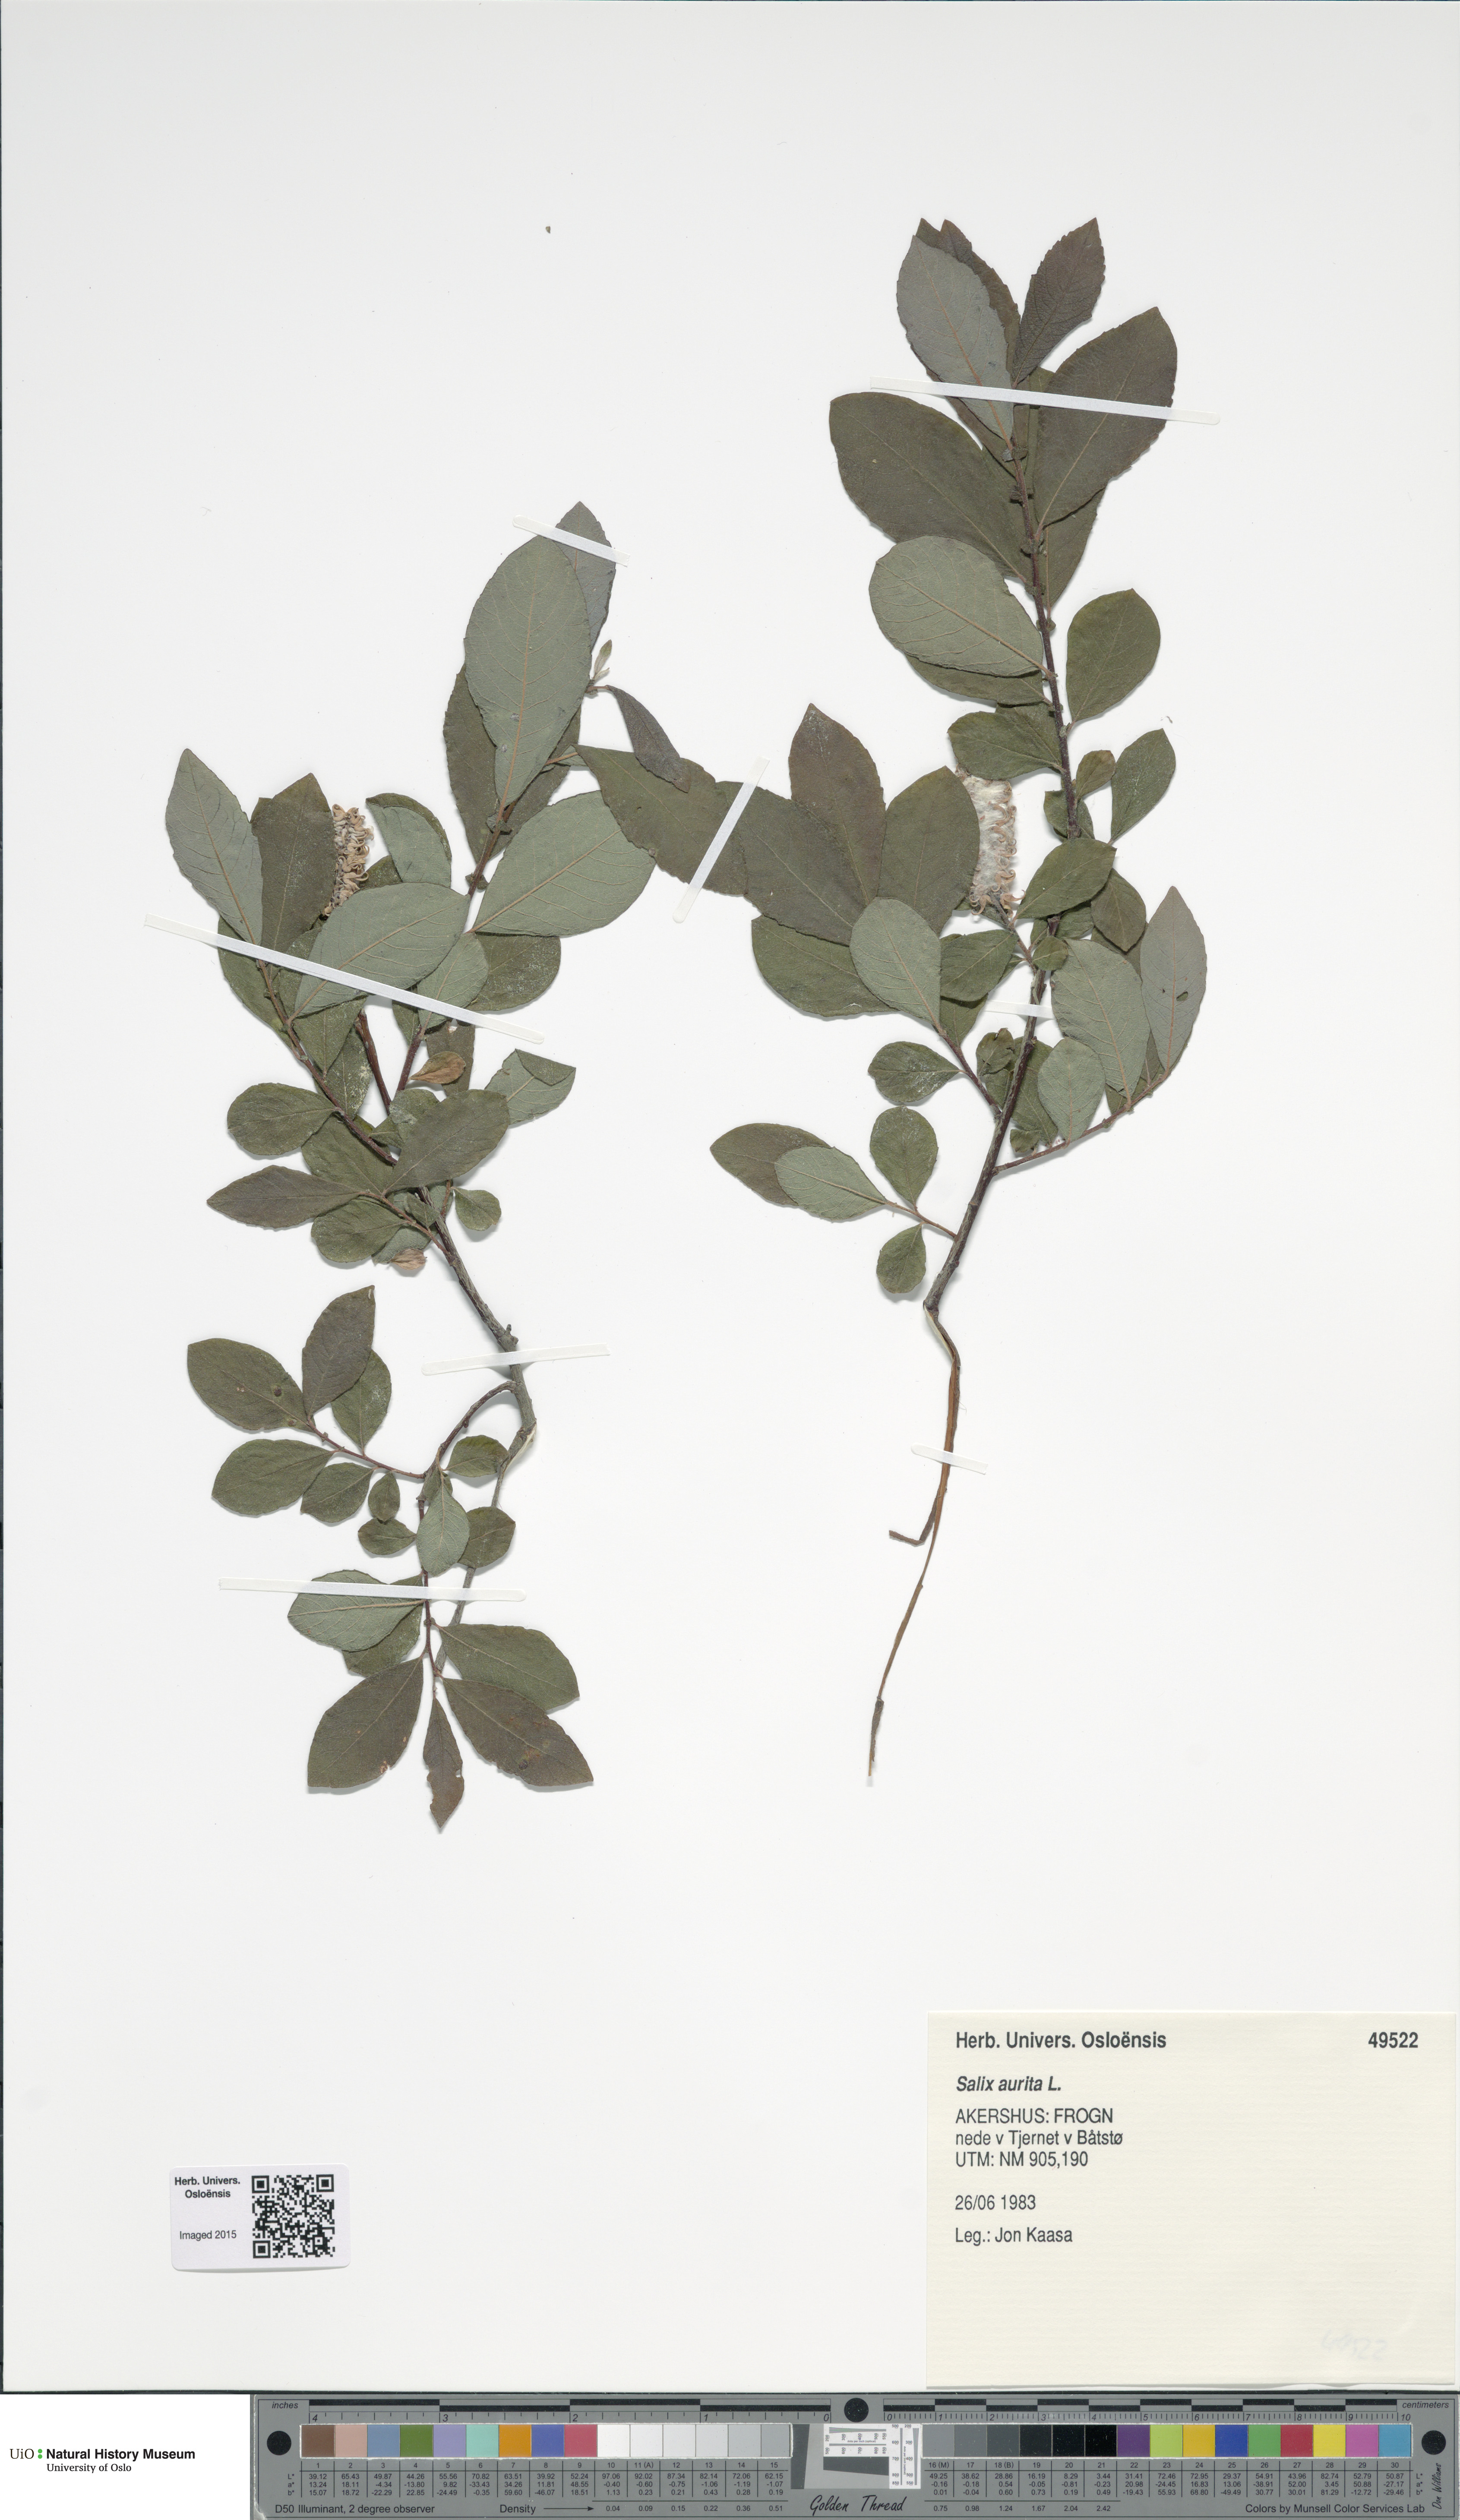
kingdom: Plantae
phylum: Tracheophyta
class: Magnoliopsida
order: Malpighiales
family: Salicaceae
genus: Salix
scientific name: Salix aurita
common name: Eared willow
